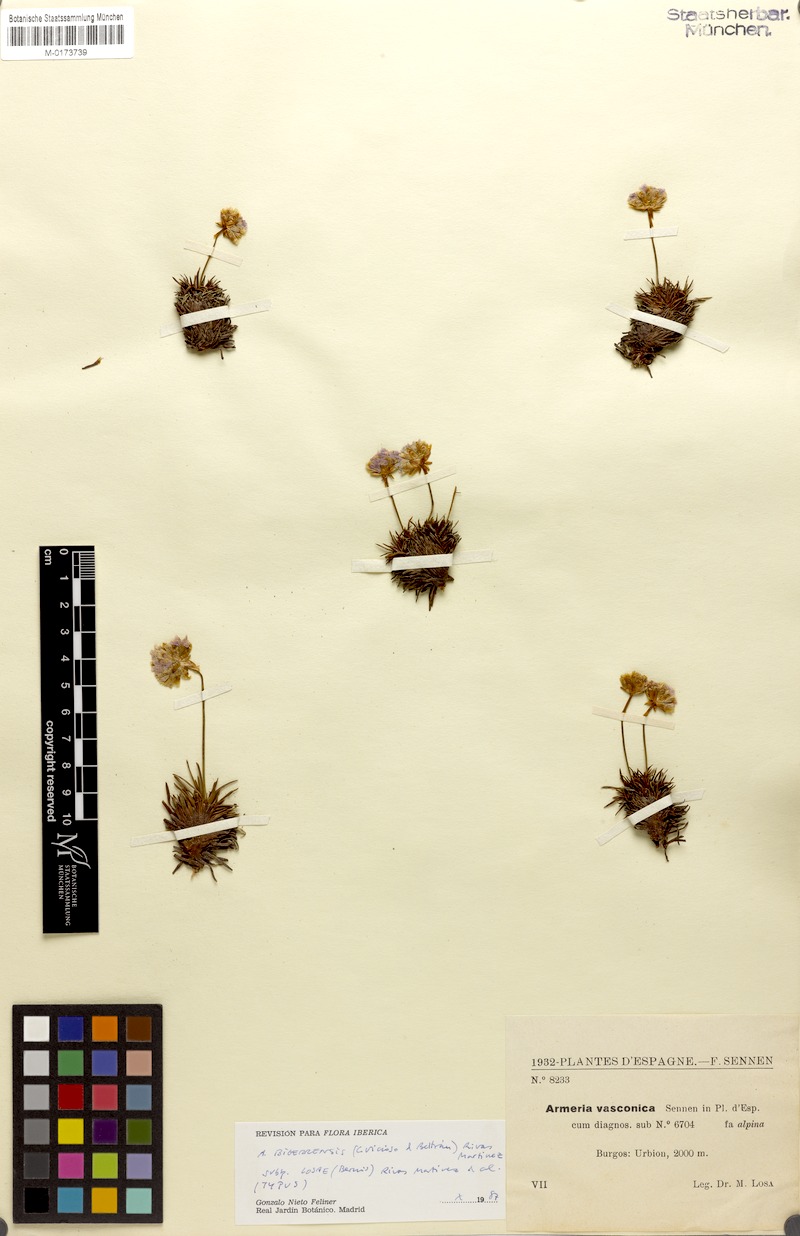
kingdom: Plantae
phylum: Tracheophyta
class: Magnoliopsida
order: Caryophyllales
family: Plumbaginaceae
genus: Armeria
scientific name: Armeria bigerrensis
